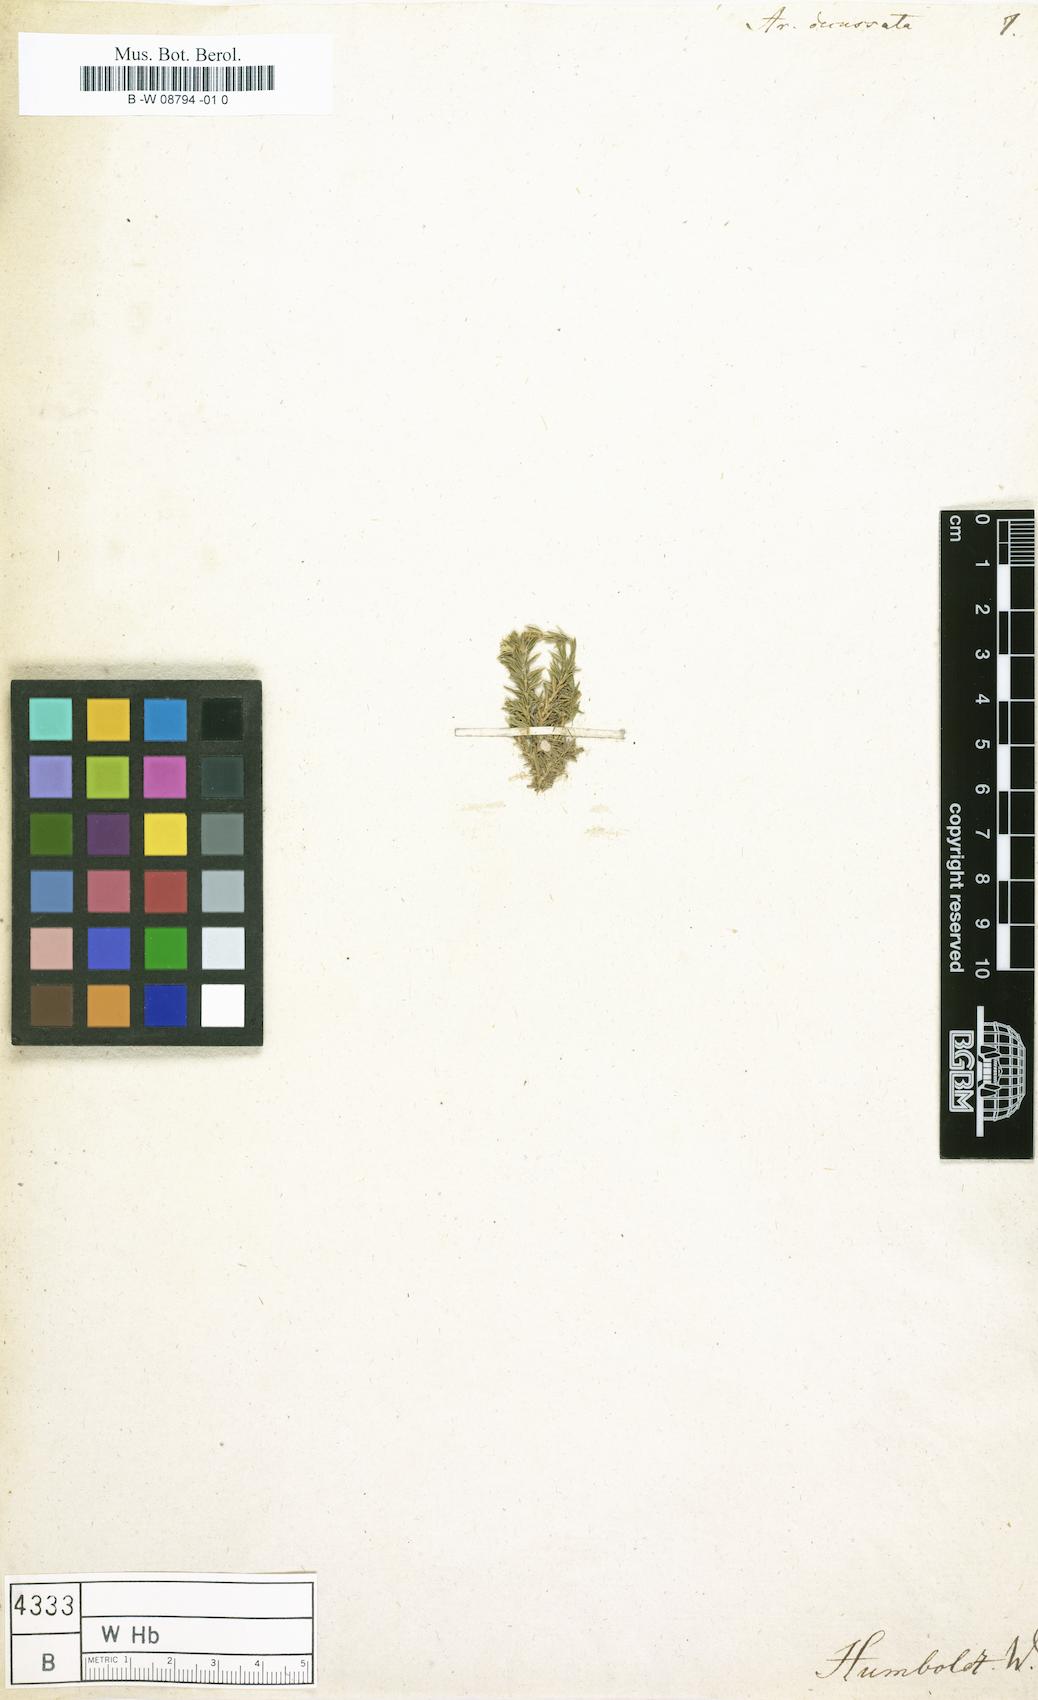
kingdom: Plantae
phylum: Tracheophyta
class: Magnoliopsida
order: Caryophyllales
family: Caryophyllaceae
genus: Arenaria
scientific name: Arenaria lycopodioides
